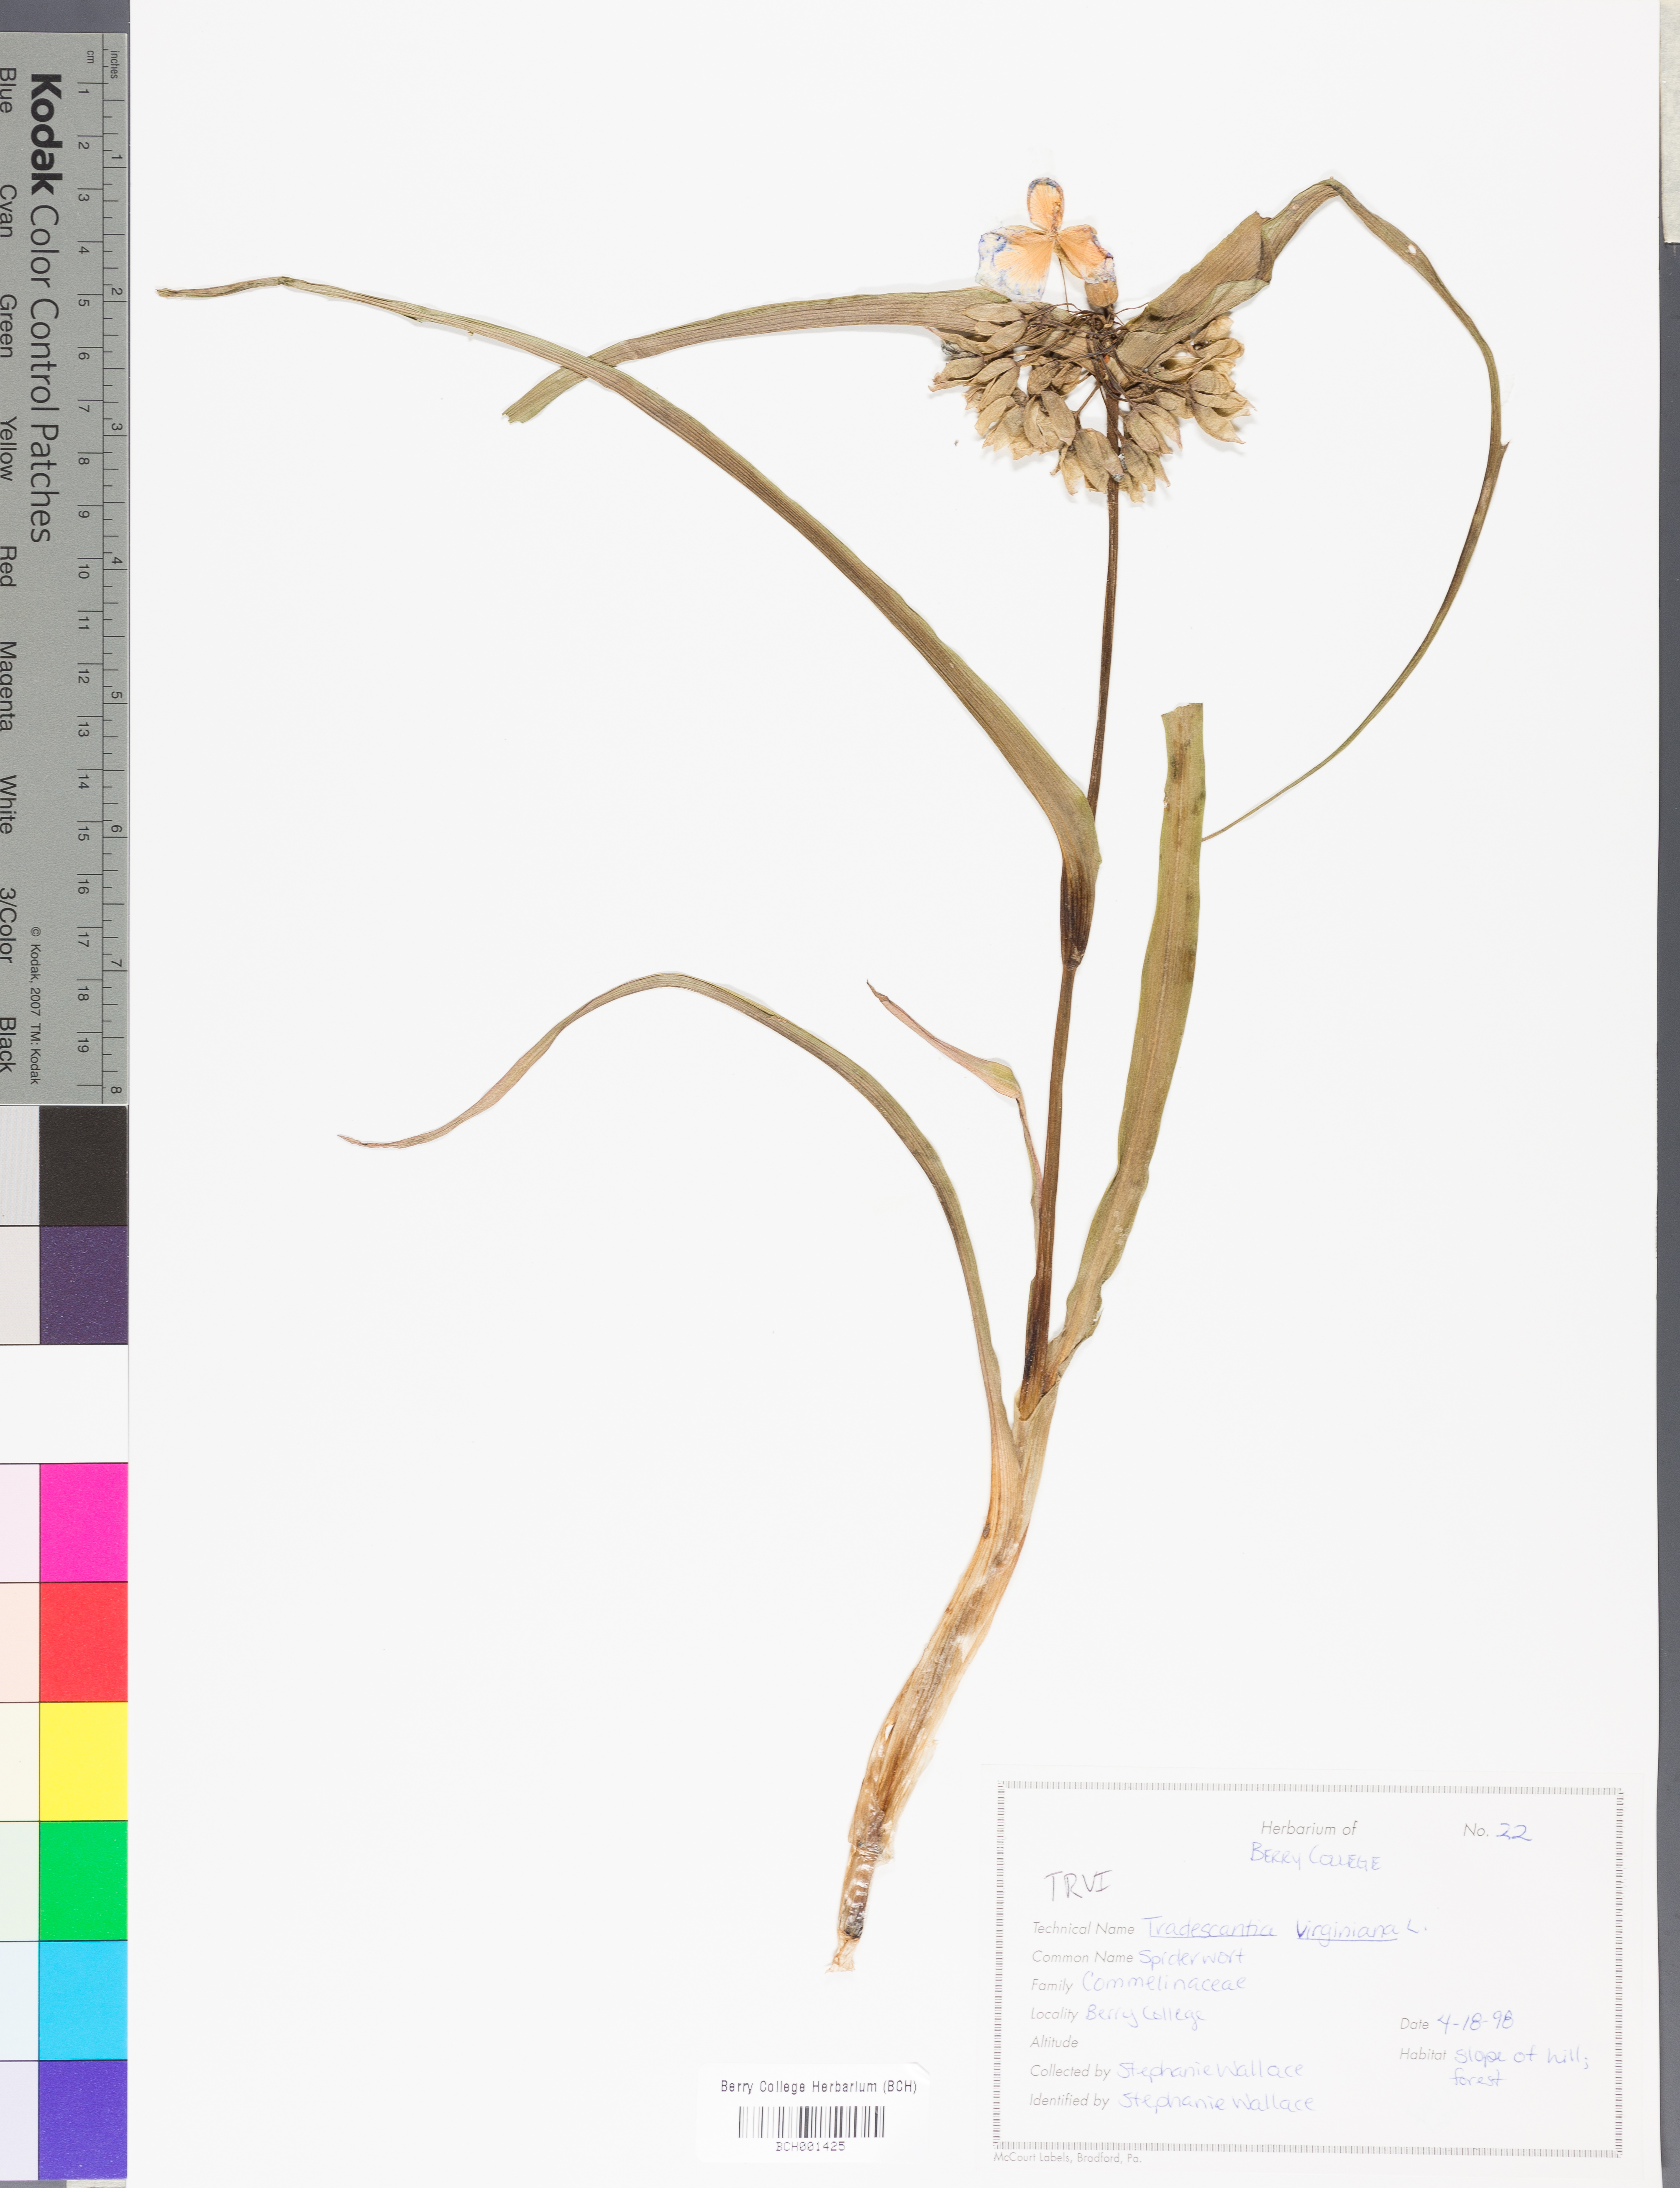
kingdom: Plantae
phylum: Tracheophyta
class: Liliopsida
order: Commelinales
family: Commelinaceae
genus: Tradescantia
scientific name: Tradescantia virginiana
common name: Spiderwort
